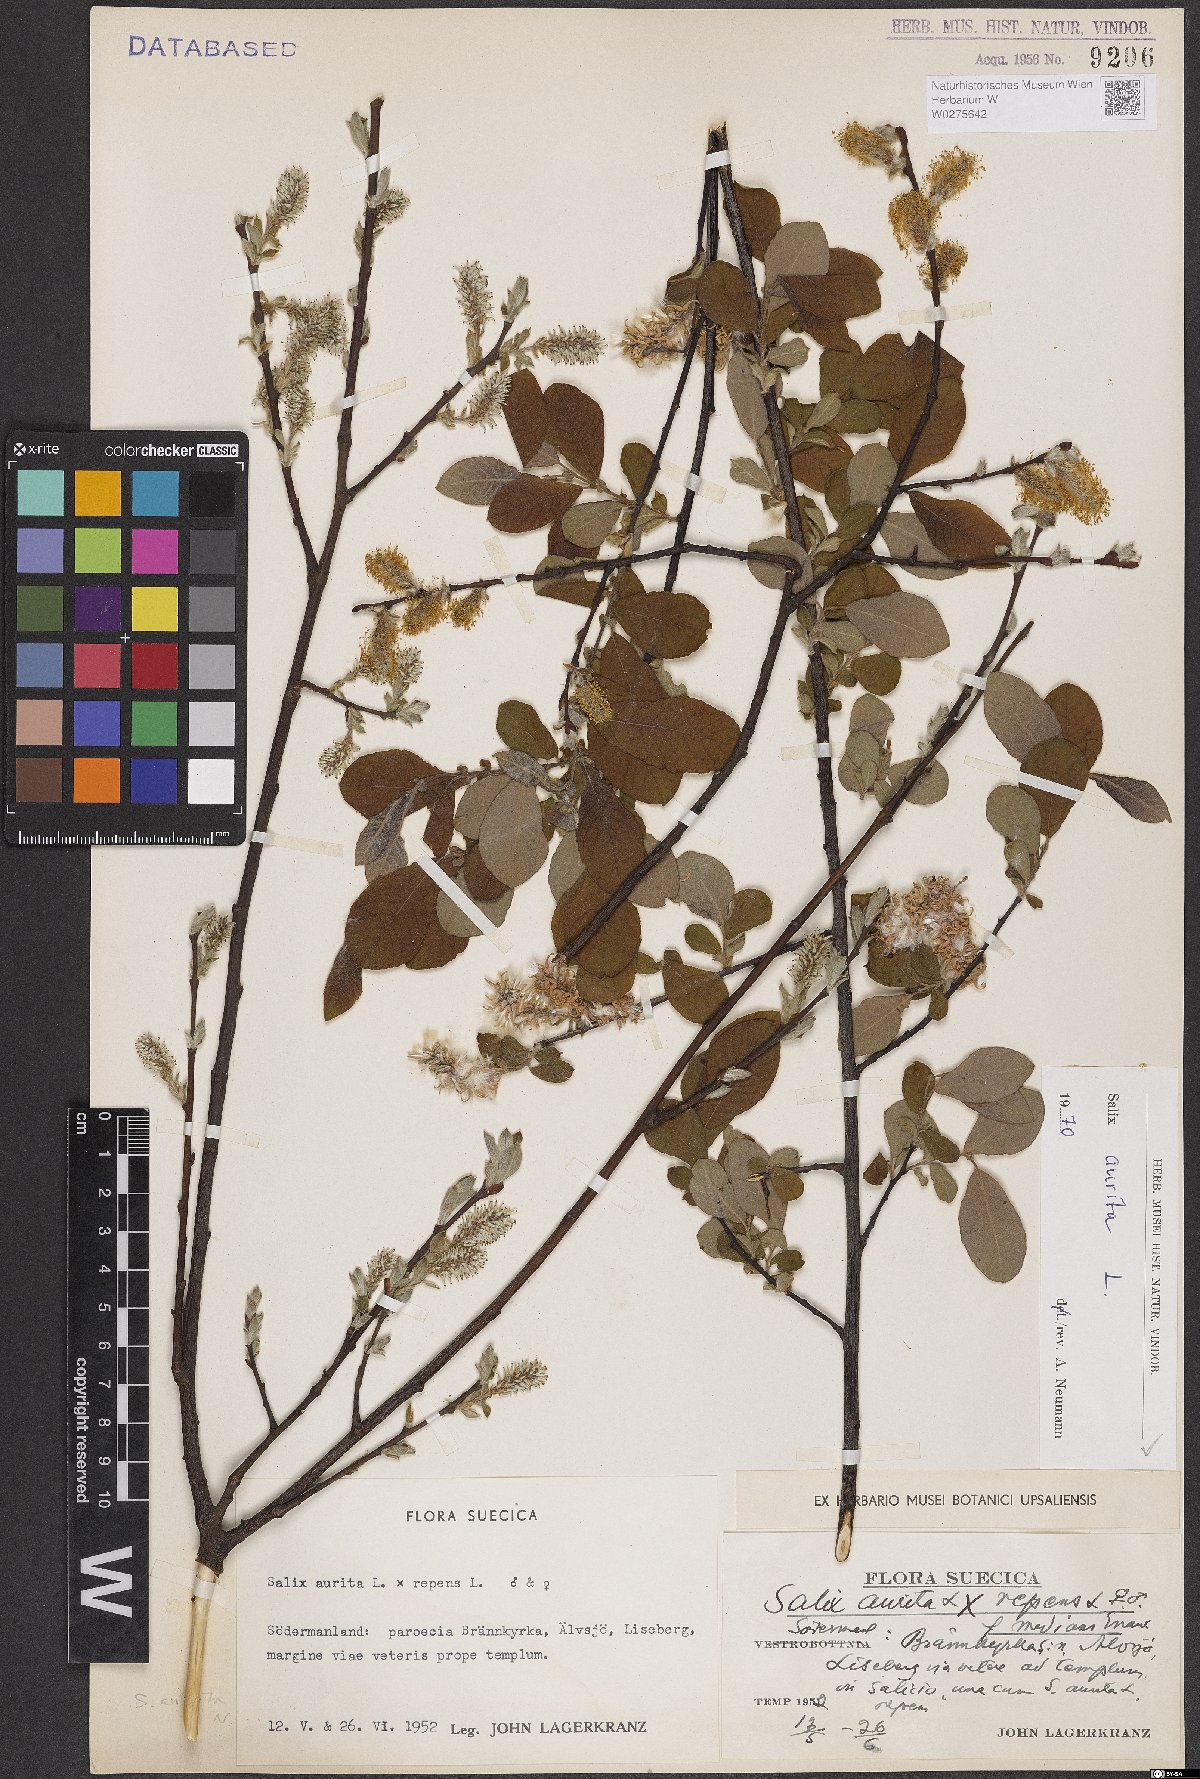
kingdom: Plantae
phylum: Tracheophyta
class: Magnoliopsida
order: Malpighiales
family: Salicaceae
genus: Salix
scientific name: Salix aurita
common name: Eared willow
